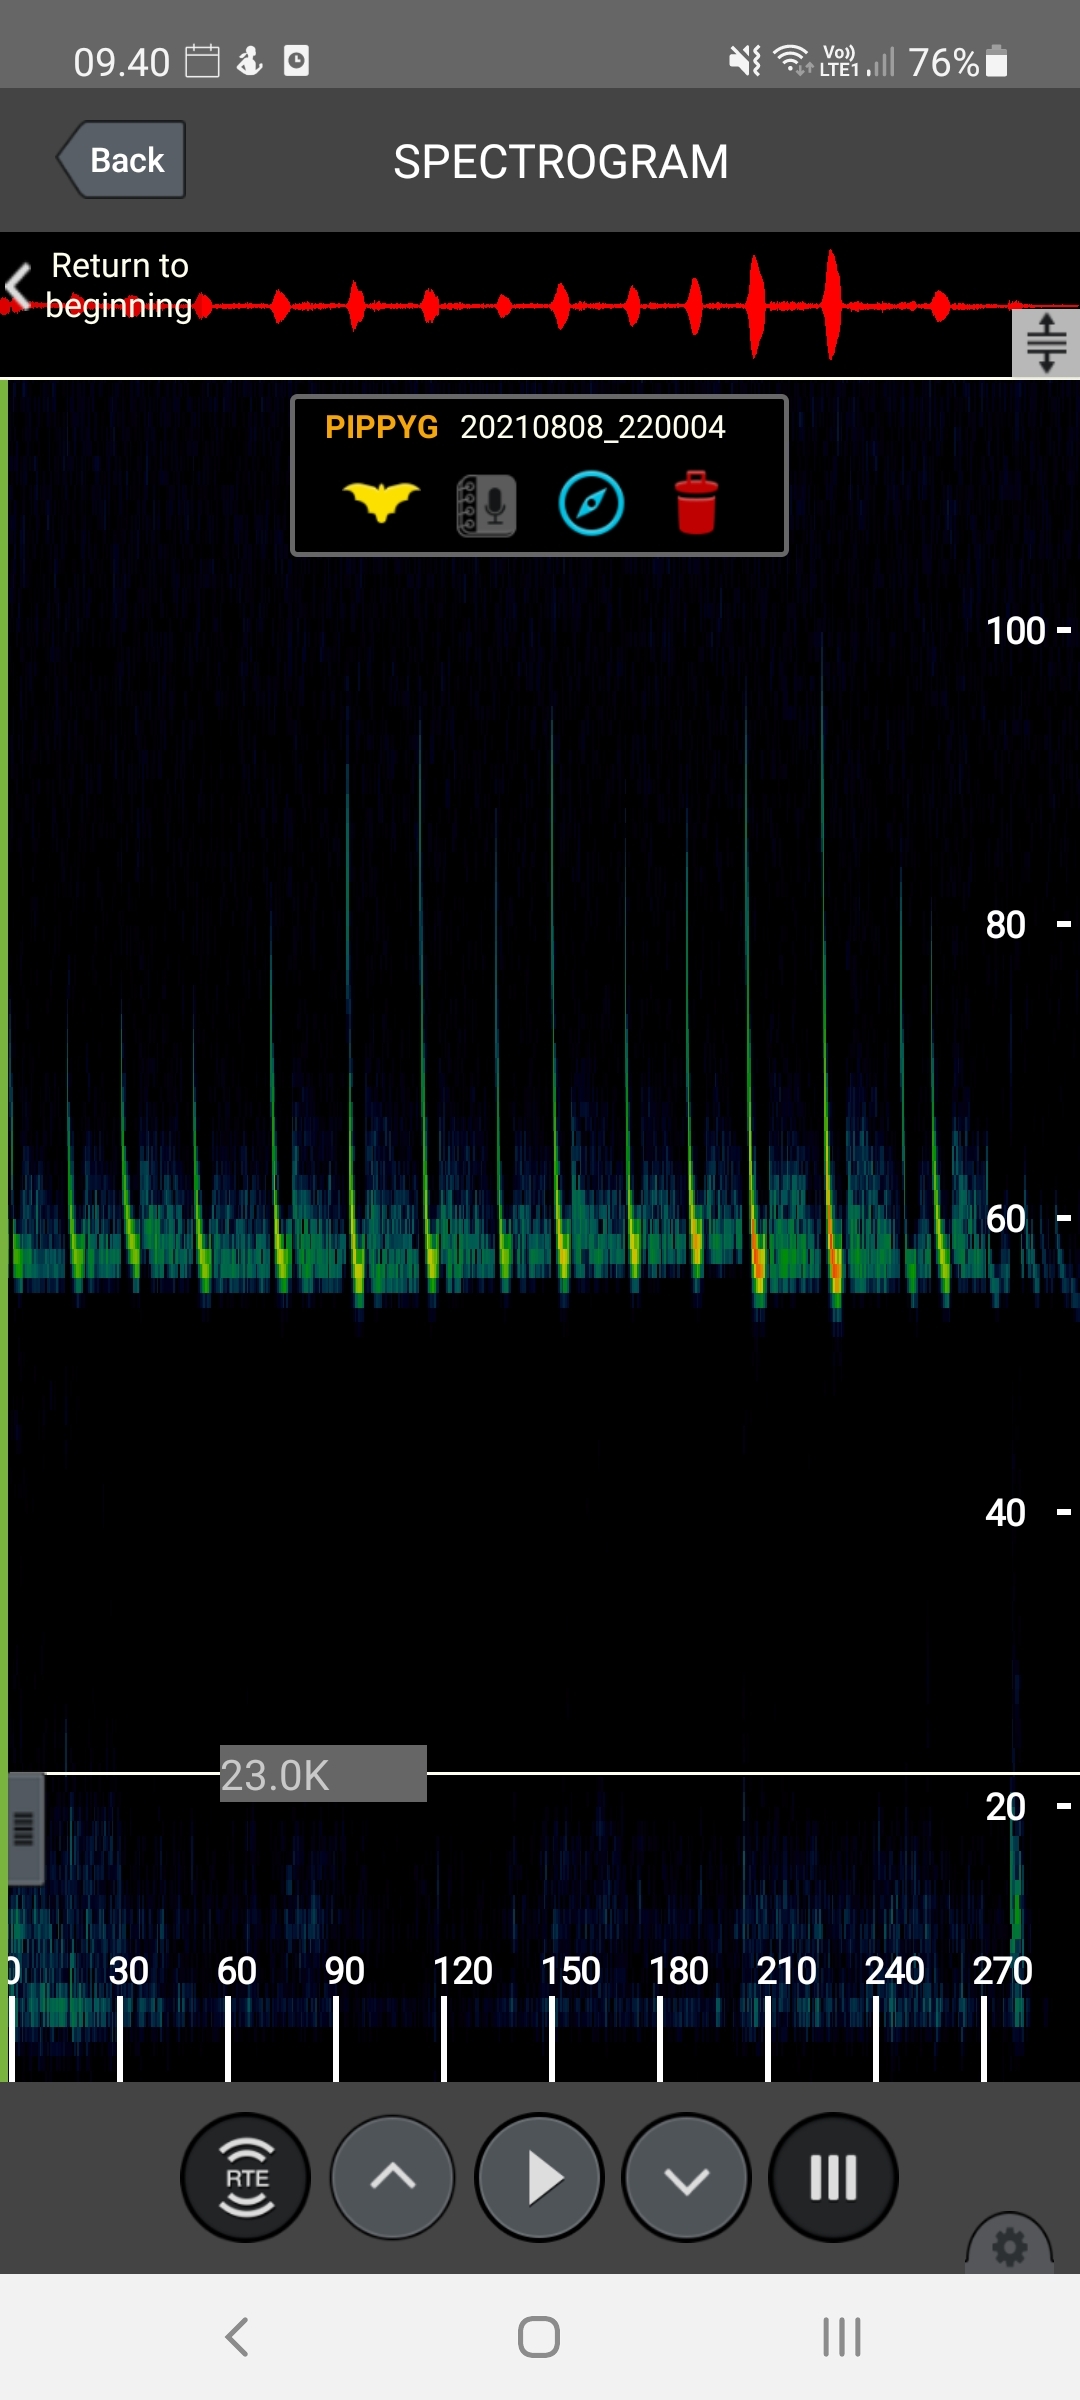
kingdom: Animalia
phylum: Chordata
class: Mammalia
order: Chiroptera
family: Vespertilionidae
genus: Pipistrellus
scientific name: Pipistrellus pygmaeus
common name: Dværgflagermus
